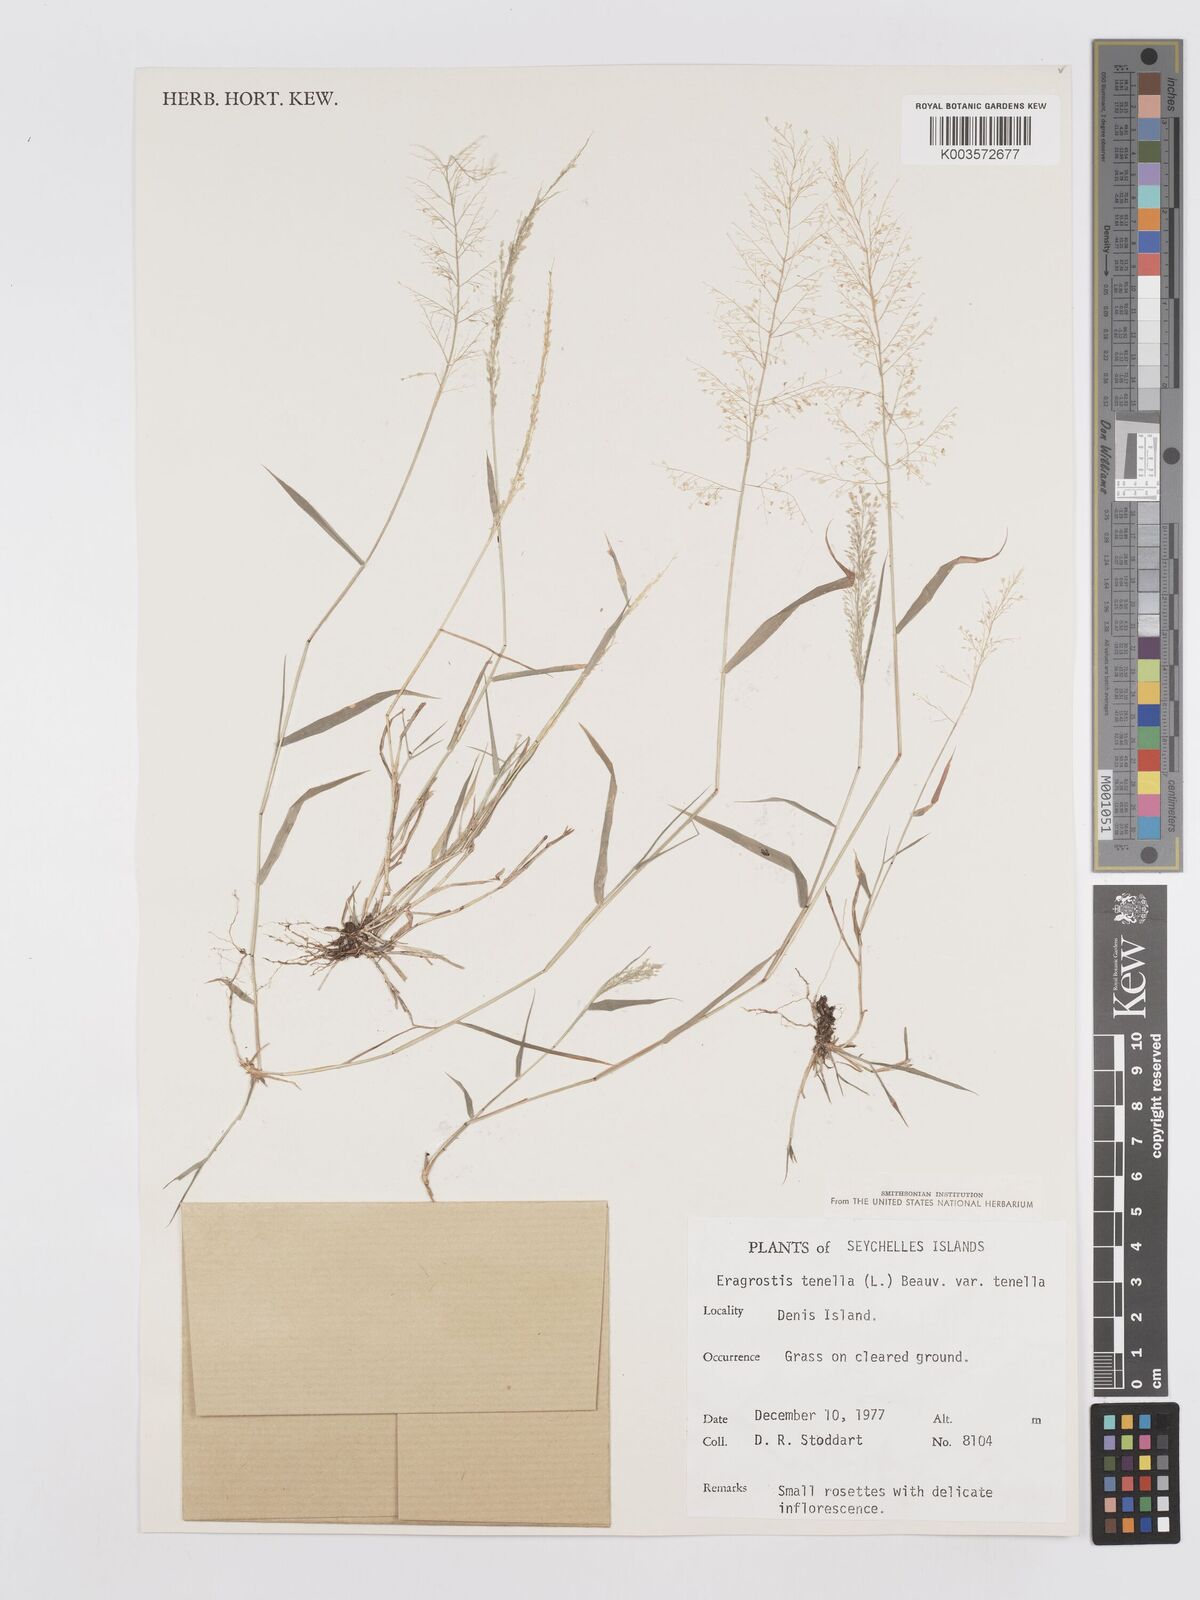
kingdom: Plantae
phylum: Tracheophyta
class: Liliopsida
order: Poales
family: Poaceae
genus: Eragrostis
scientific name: Eragrostis tenella
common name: Japanese lovegrass
